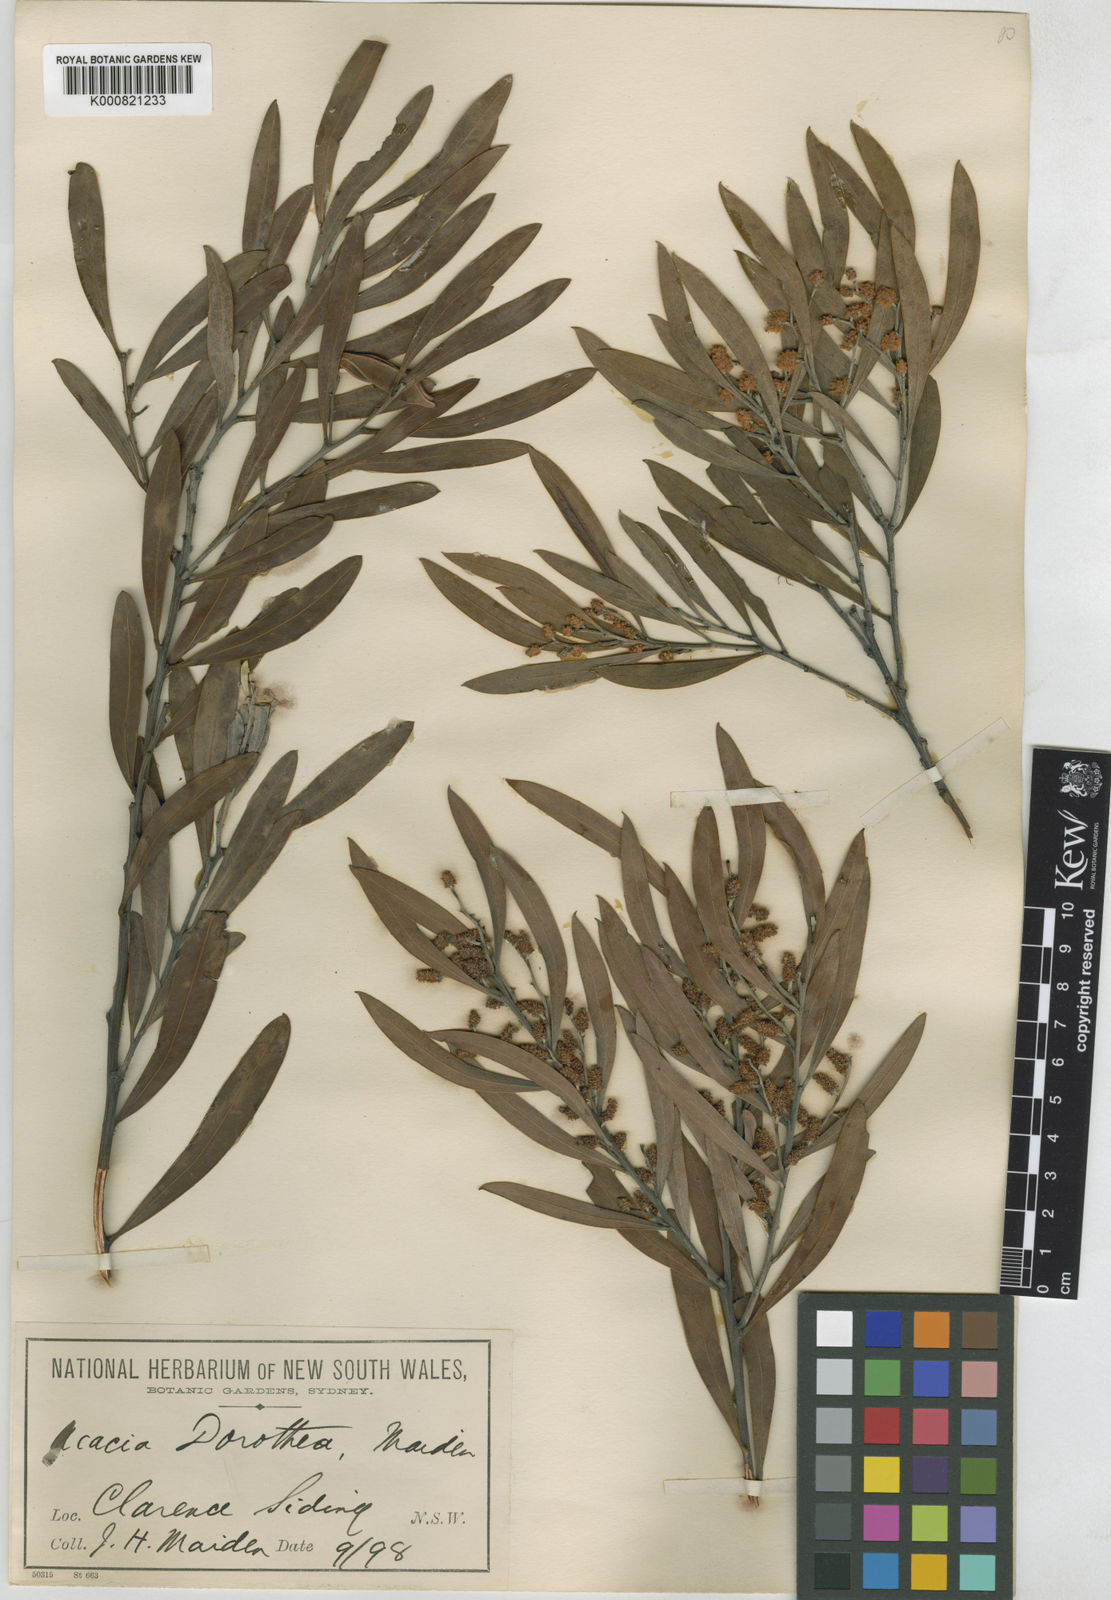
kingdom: Plantae
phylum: Tracheophyta
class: Magnoliopsida
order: Fabales
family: Fabaceae
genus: Acacia
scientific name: Acacia dorothea
